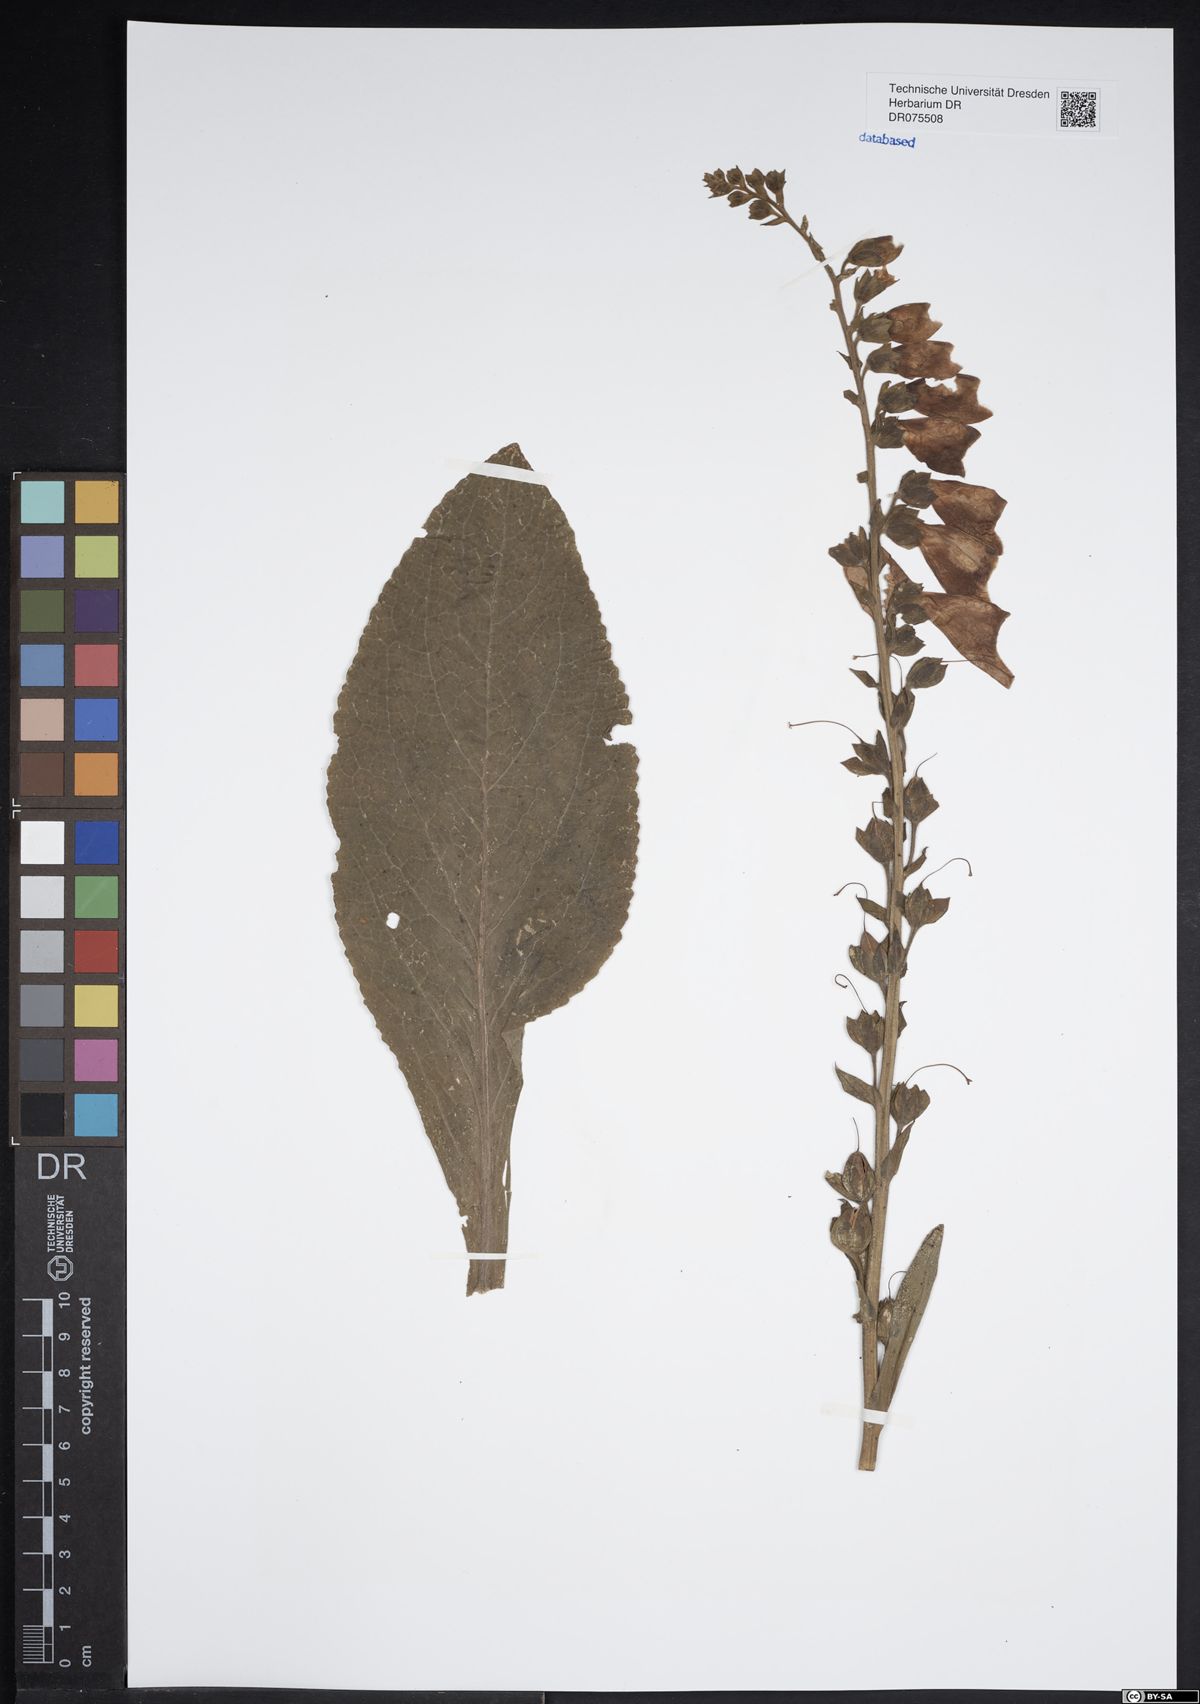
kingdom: Plantae
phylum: Tracheophyta
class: Magnoliopsida
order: Lamiales
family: Plantaginaceae
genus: Digitalis
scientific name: Digitalis purpurea
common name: Foxglove
